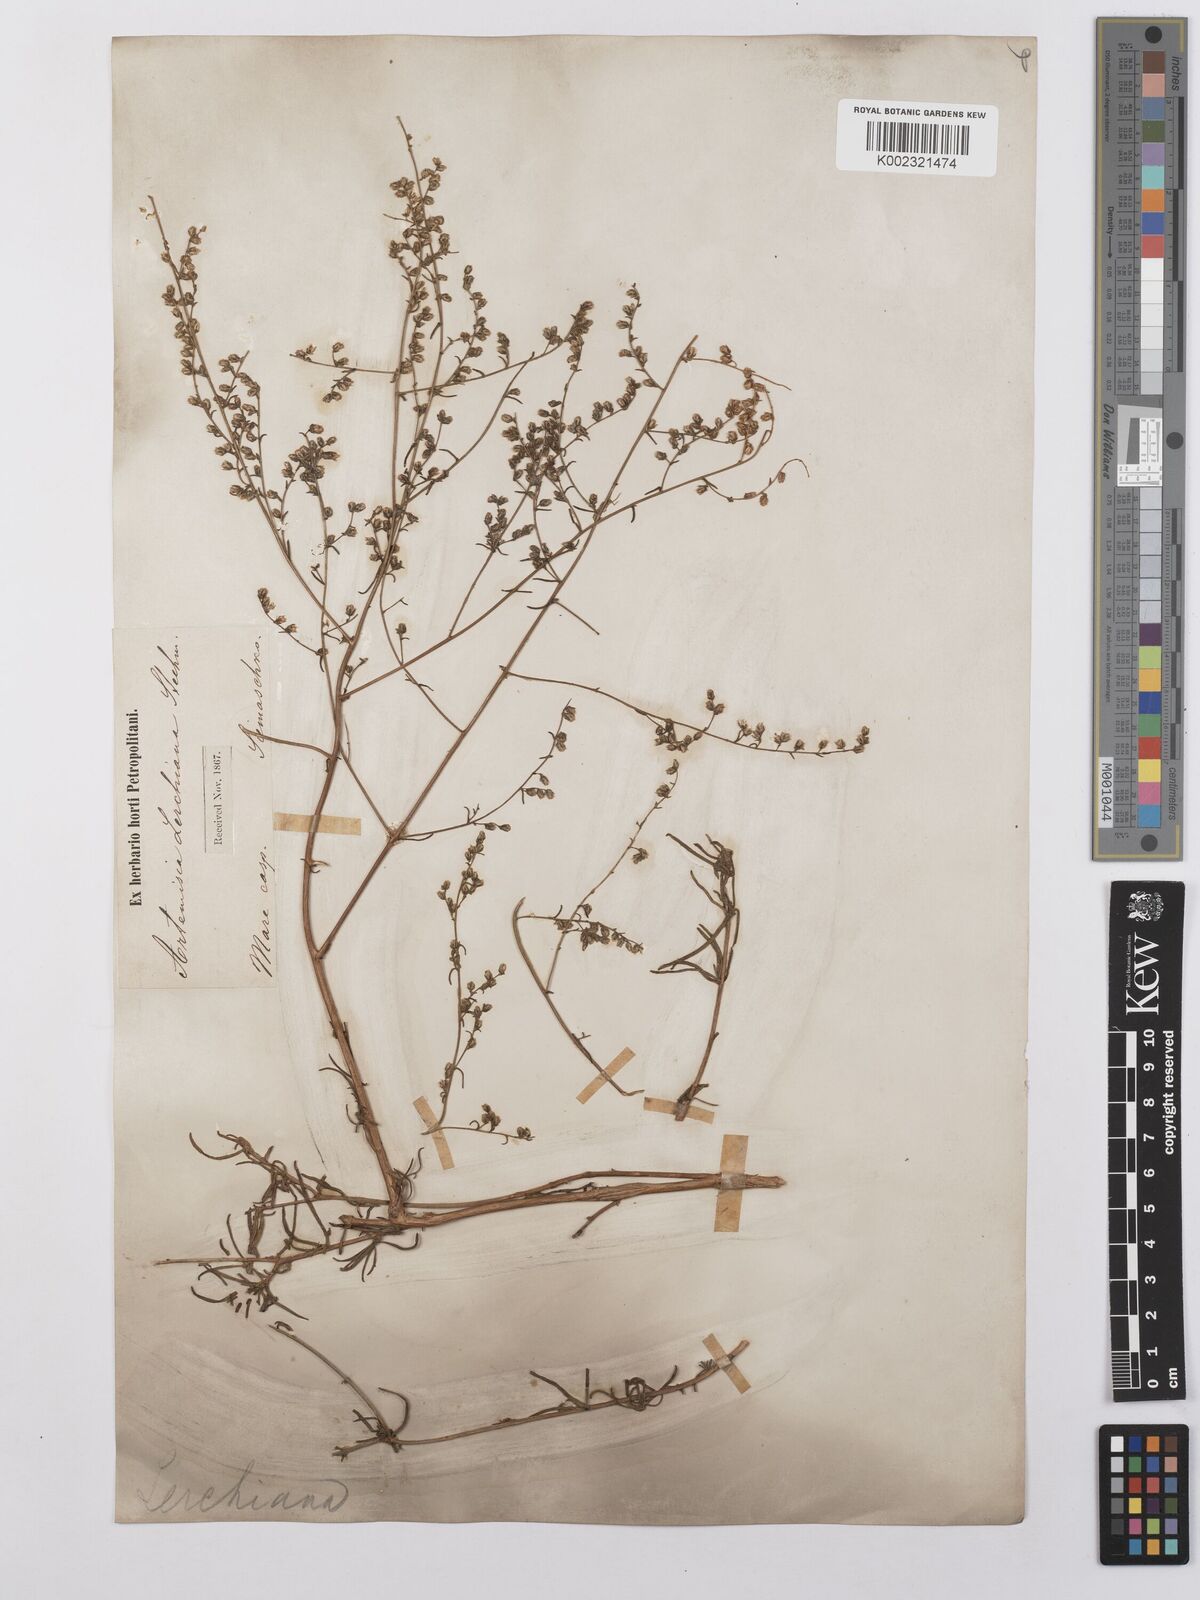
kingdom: Plantae
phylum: Tracheophyta
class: Magnoliopsida
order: Asterales
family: Asteraceae
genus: Artemisia
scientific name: Artemisia fragrans
